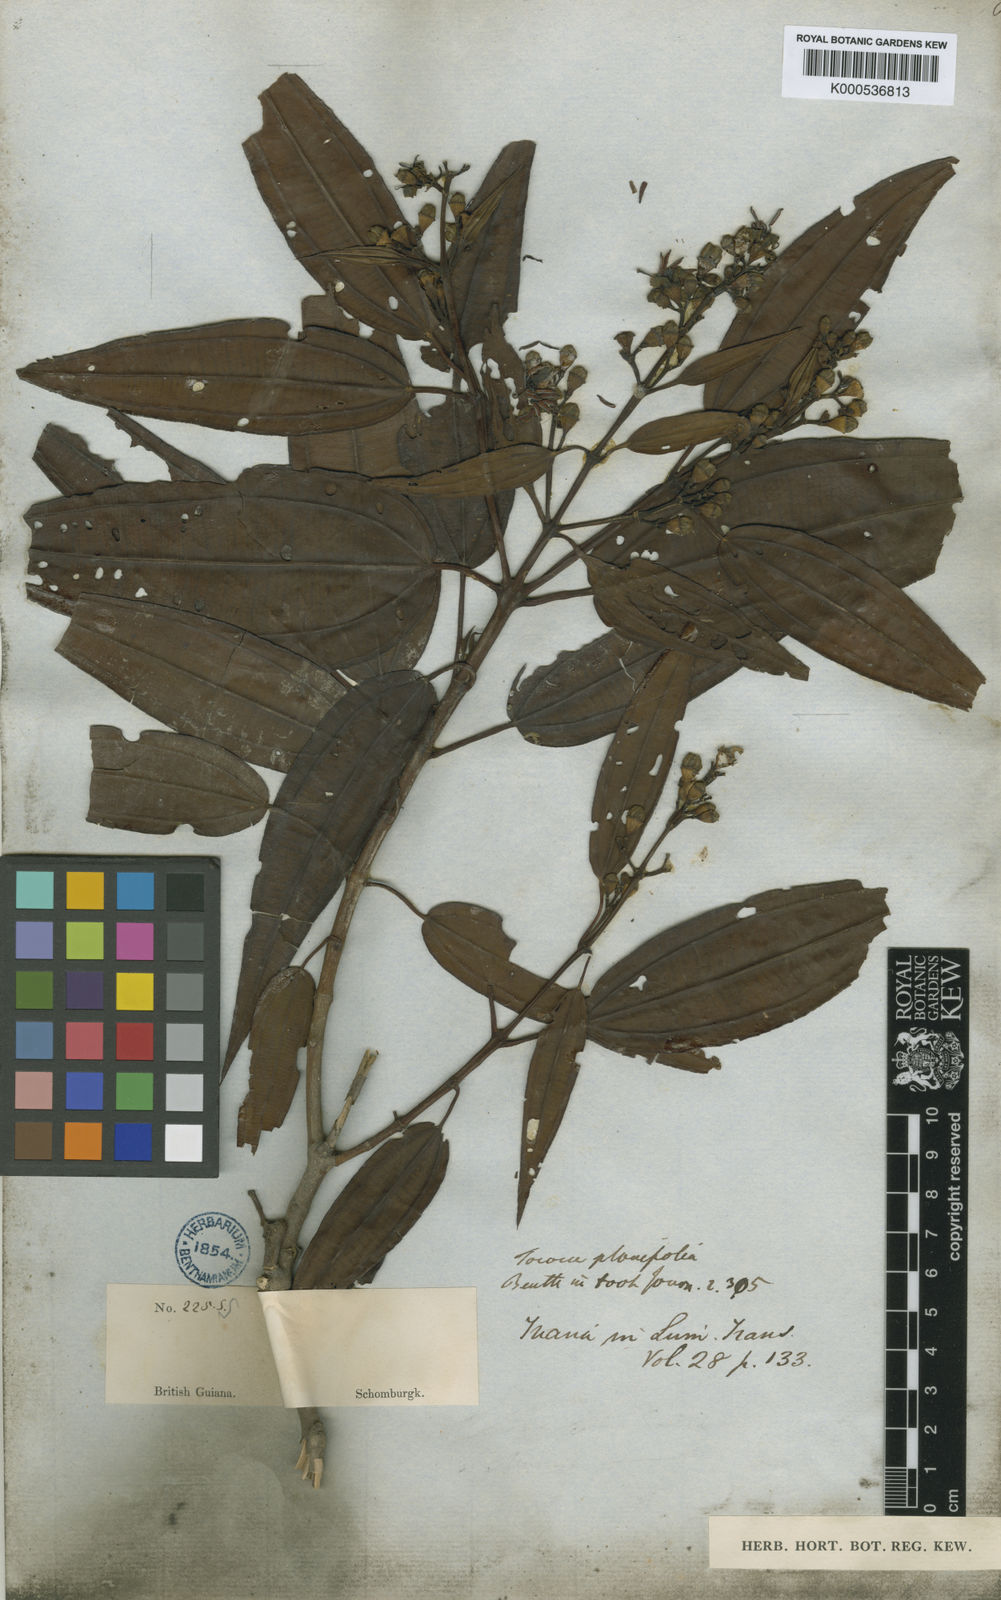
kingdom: Plantae
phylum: Tracheophyta
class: Magnoliopsida
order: Myrtales
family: Melastomataceae
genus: Miconia
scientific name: Miconia subciliata
